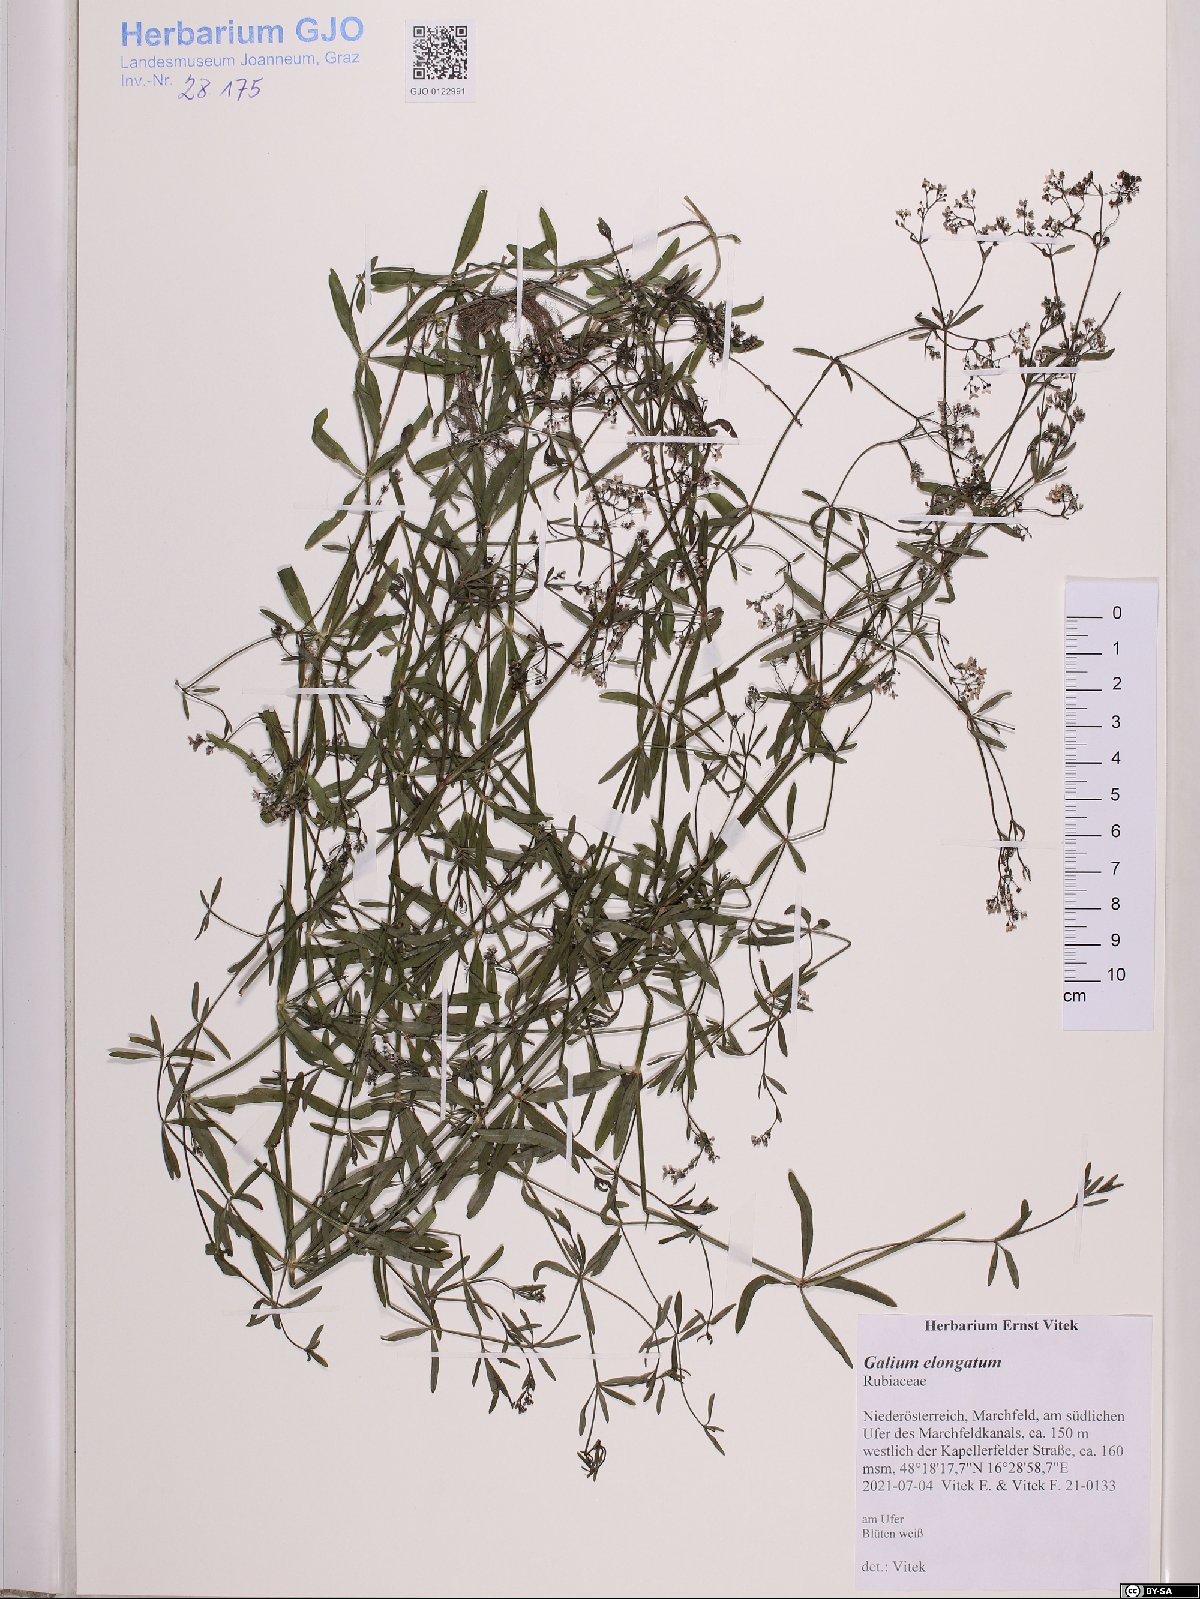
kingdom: Plantae
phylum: Tracheophyta
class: Magnoliopsida
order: Gentianales
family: Rubiaceae
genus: Galium
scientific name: Galium elongatum
